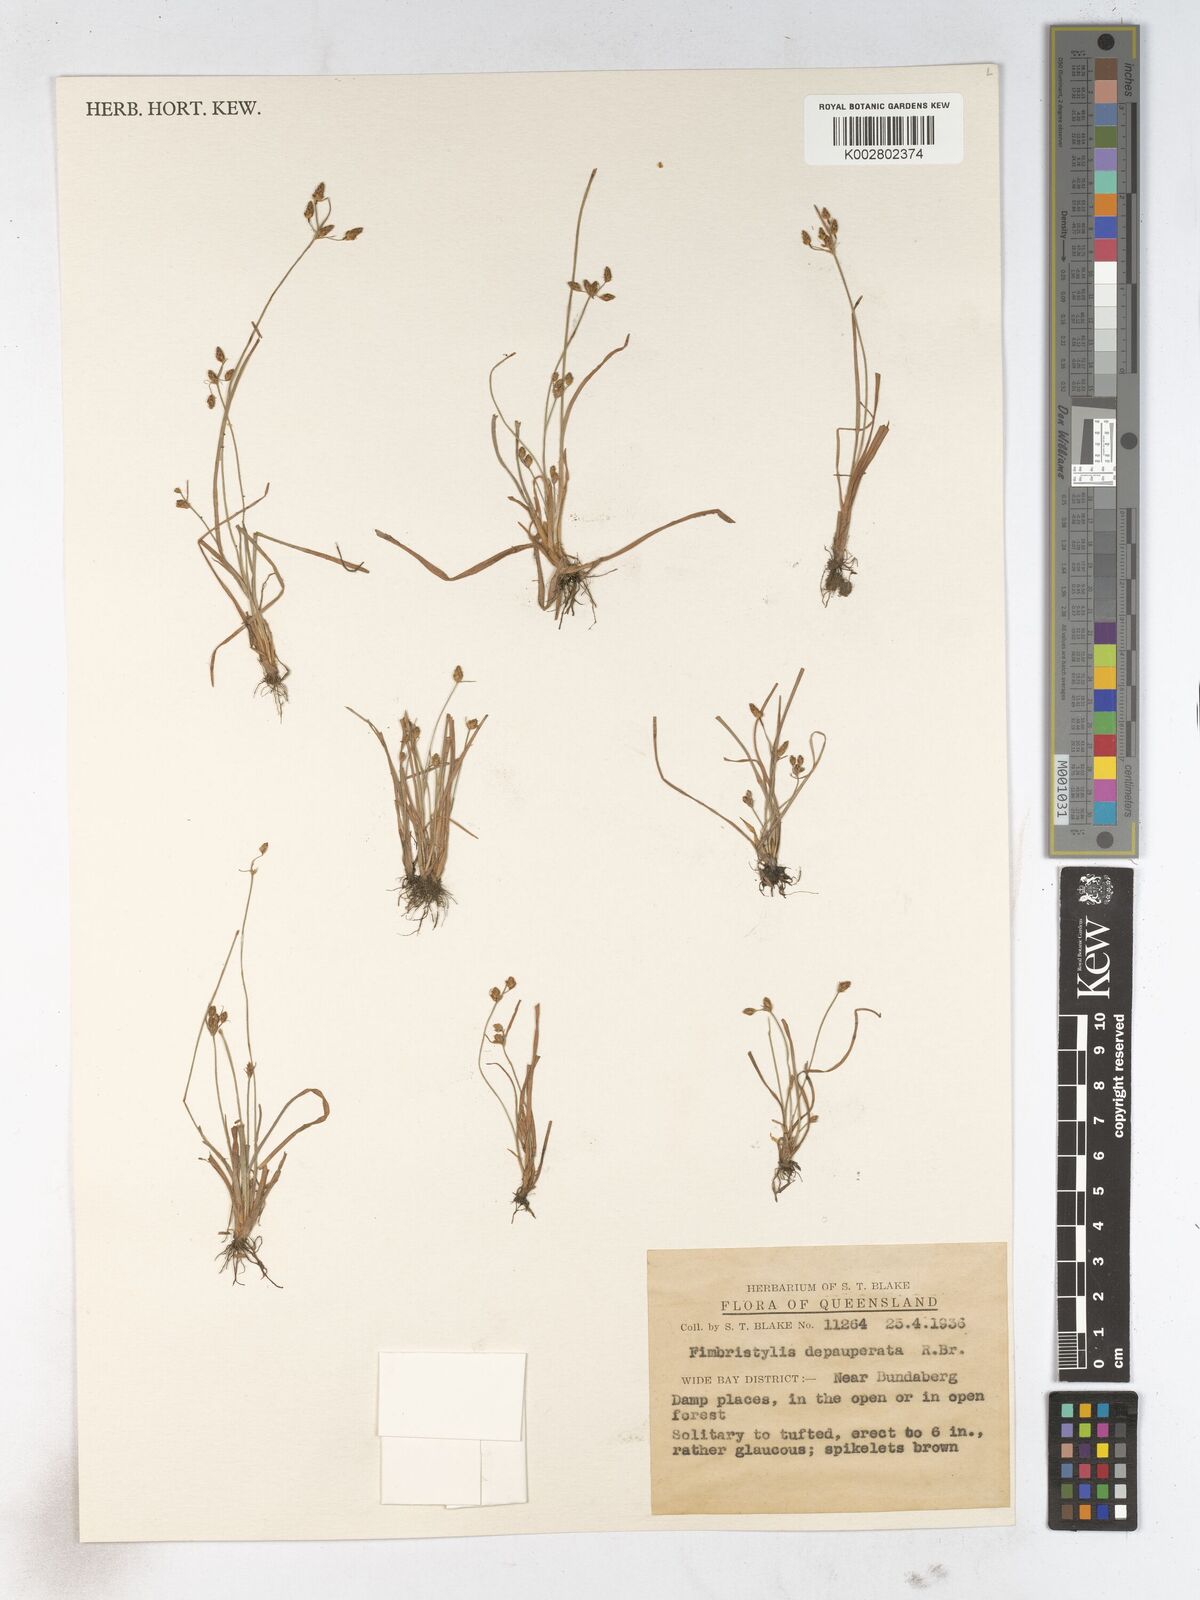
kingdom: Plantae
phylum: Tracheophyta
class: Liliopsida
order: Poales
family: Cyperaceae
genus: Fimbristylis
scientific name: Fimbristylis dichotoma
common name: Forked fimbry
